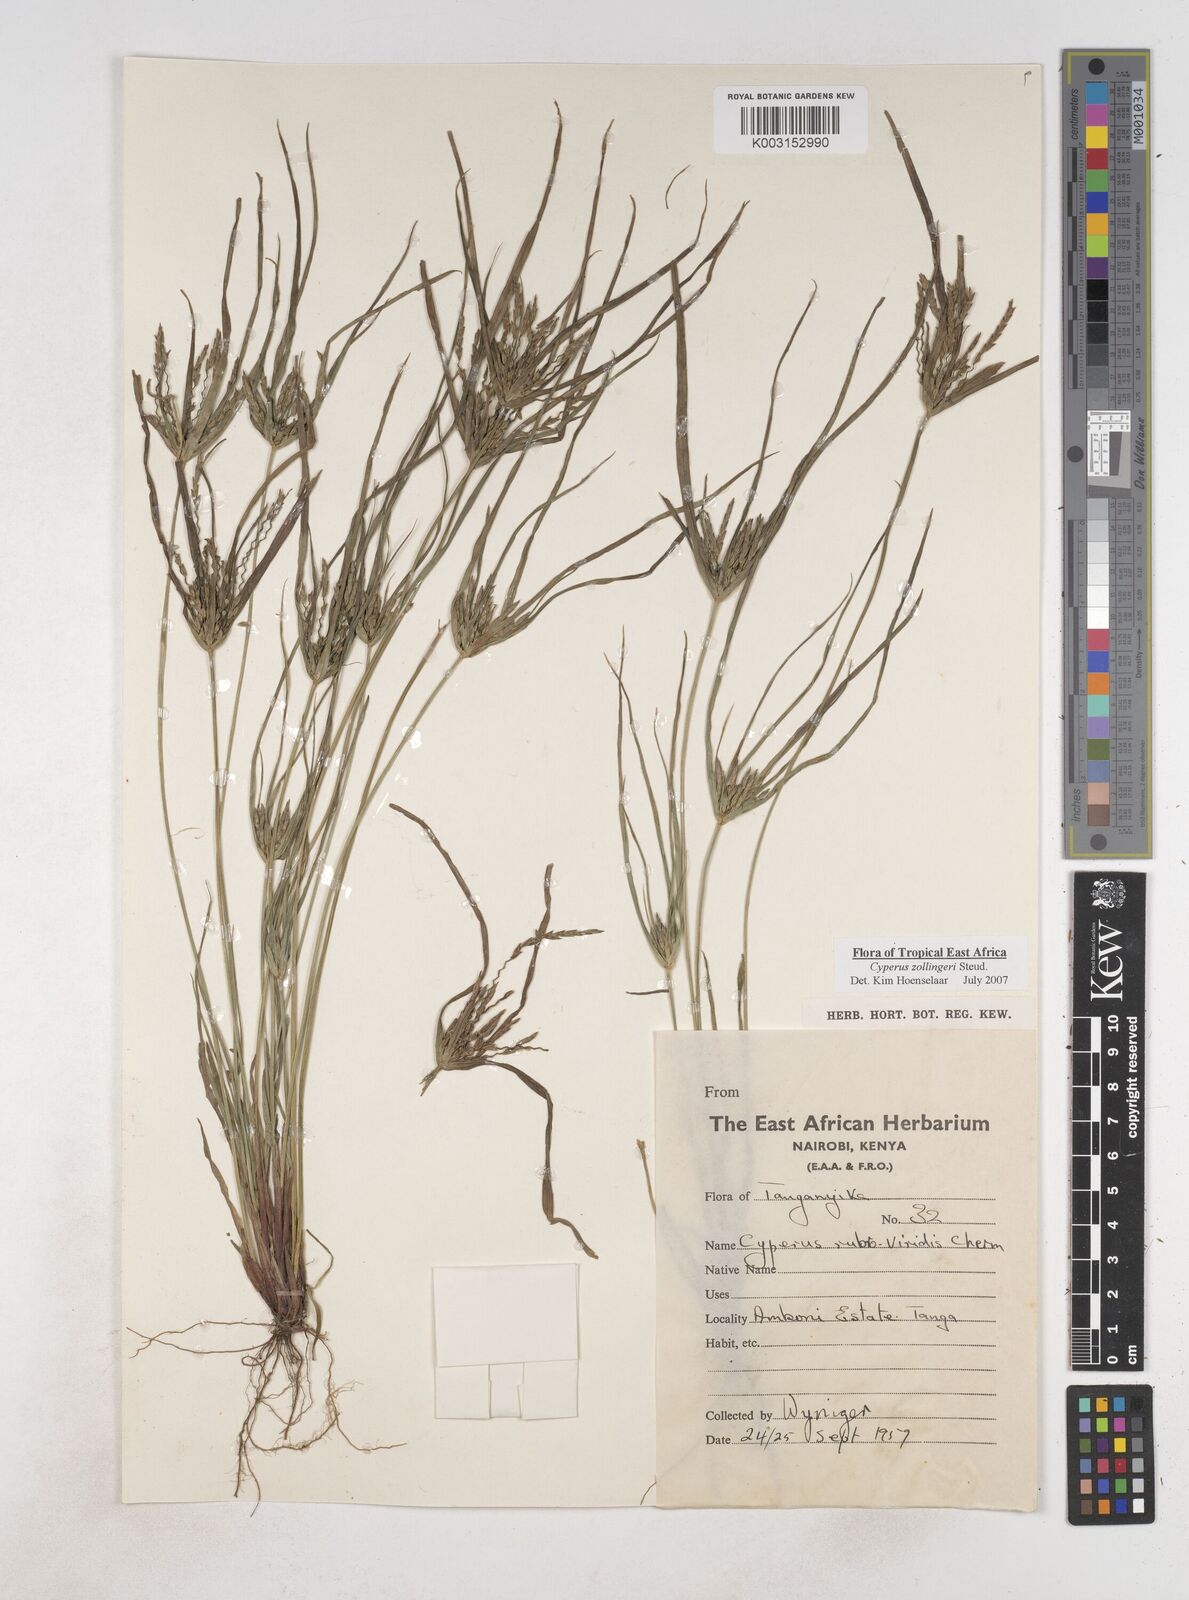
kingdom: Plantae
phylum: Tracheophyta
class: Liliopsida
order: Poales
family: Cyperaceae
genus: Cyperus
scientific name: Cyperus zollingeri
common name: Roadside flatsedge
